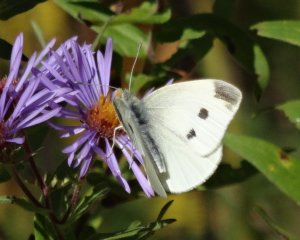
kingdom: Animalia
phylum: Arthropoda
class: Insecta
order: Lepidoptera
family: Pieridae
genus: Pieris
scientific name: Pieris rapae
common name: Cabbage White
